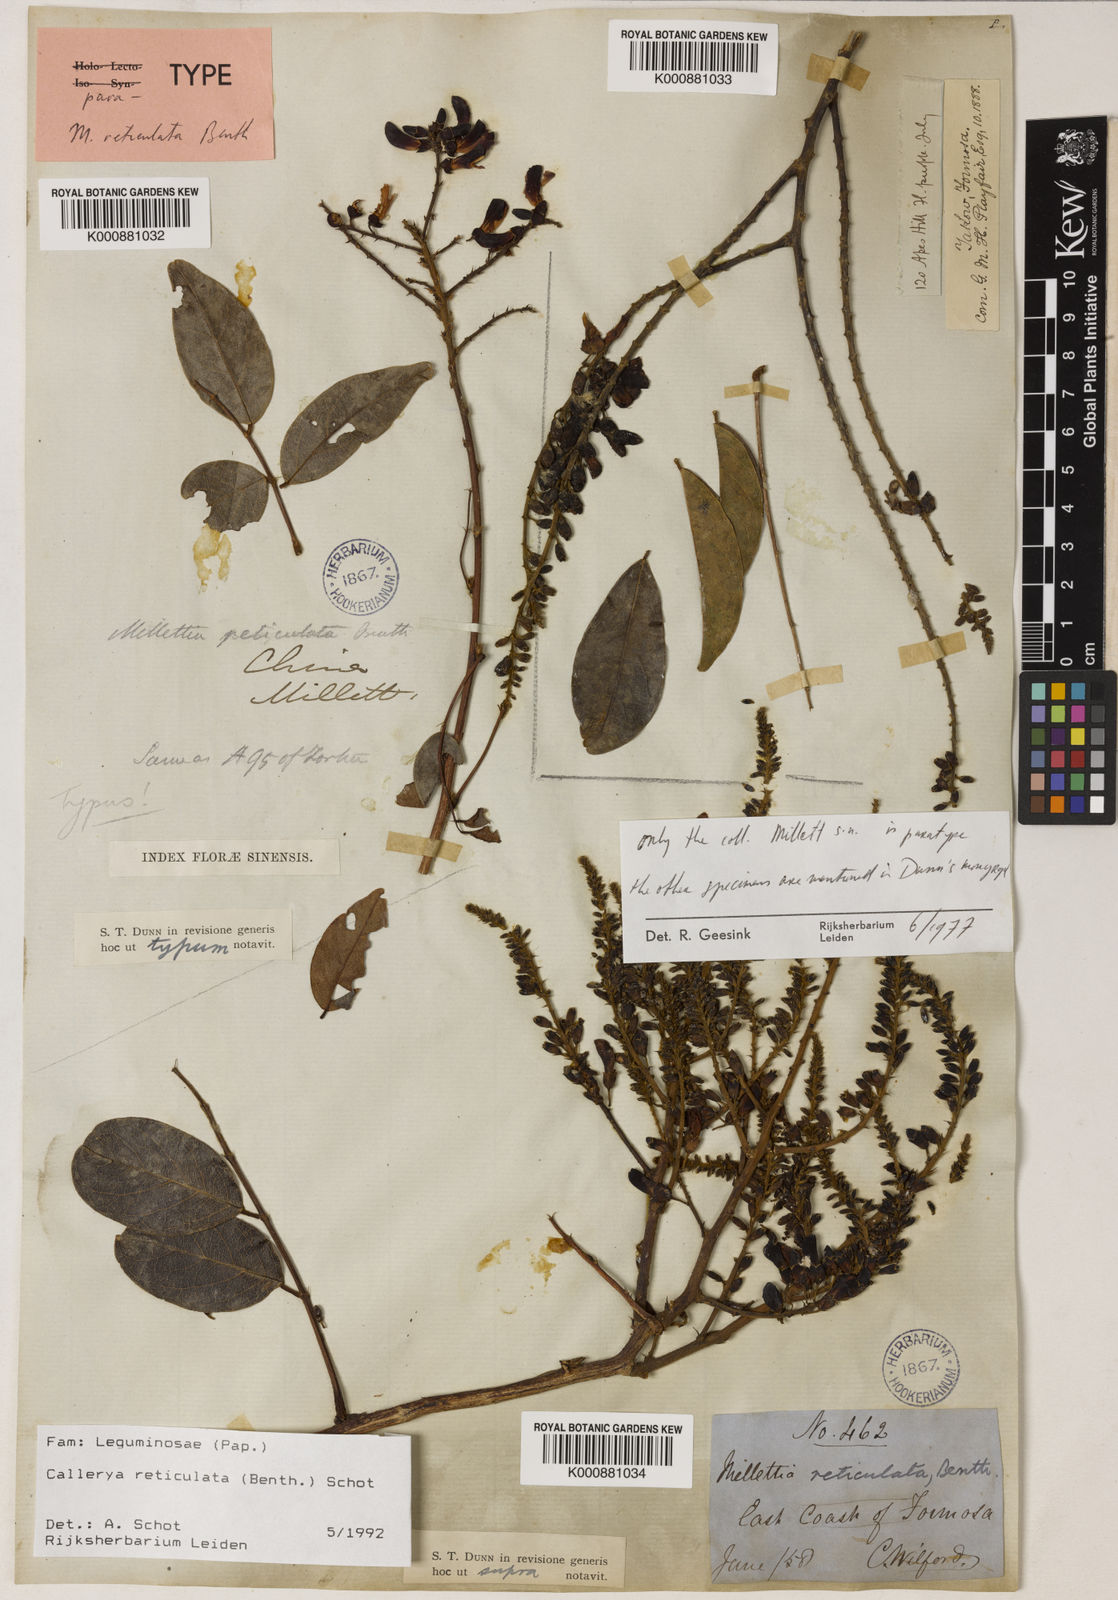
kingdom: Plantae
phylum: Tracheophyta
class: Magnoliopsida
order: Fabales
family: Fabaceae
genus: Wisteriopsis
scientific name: Wisteriopsis reticulata
